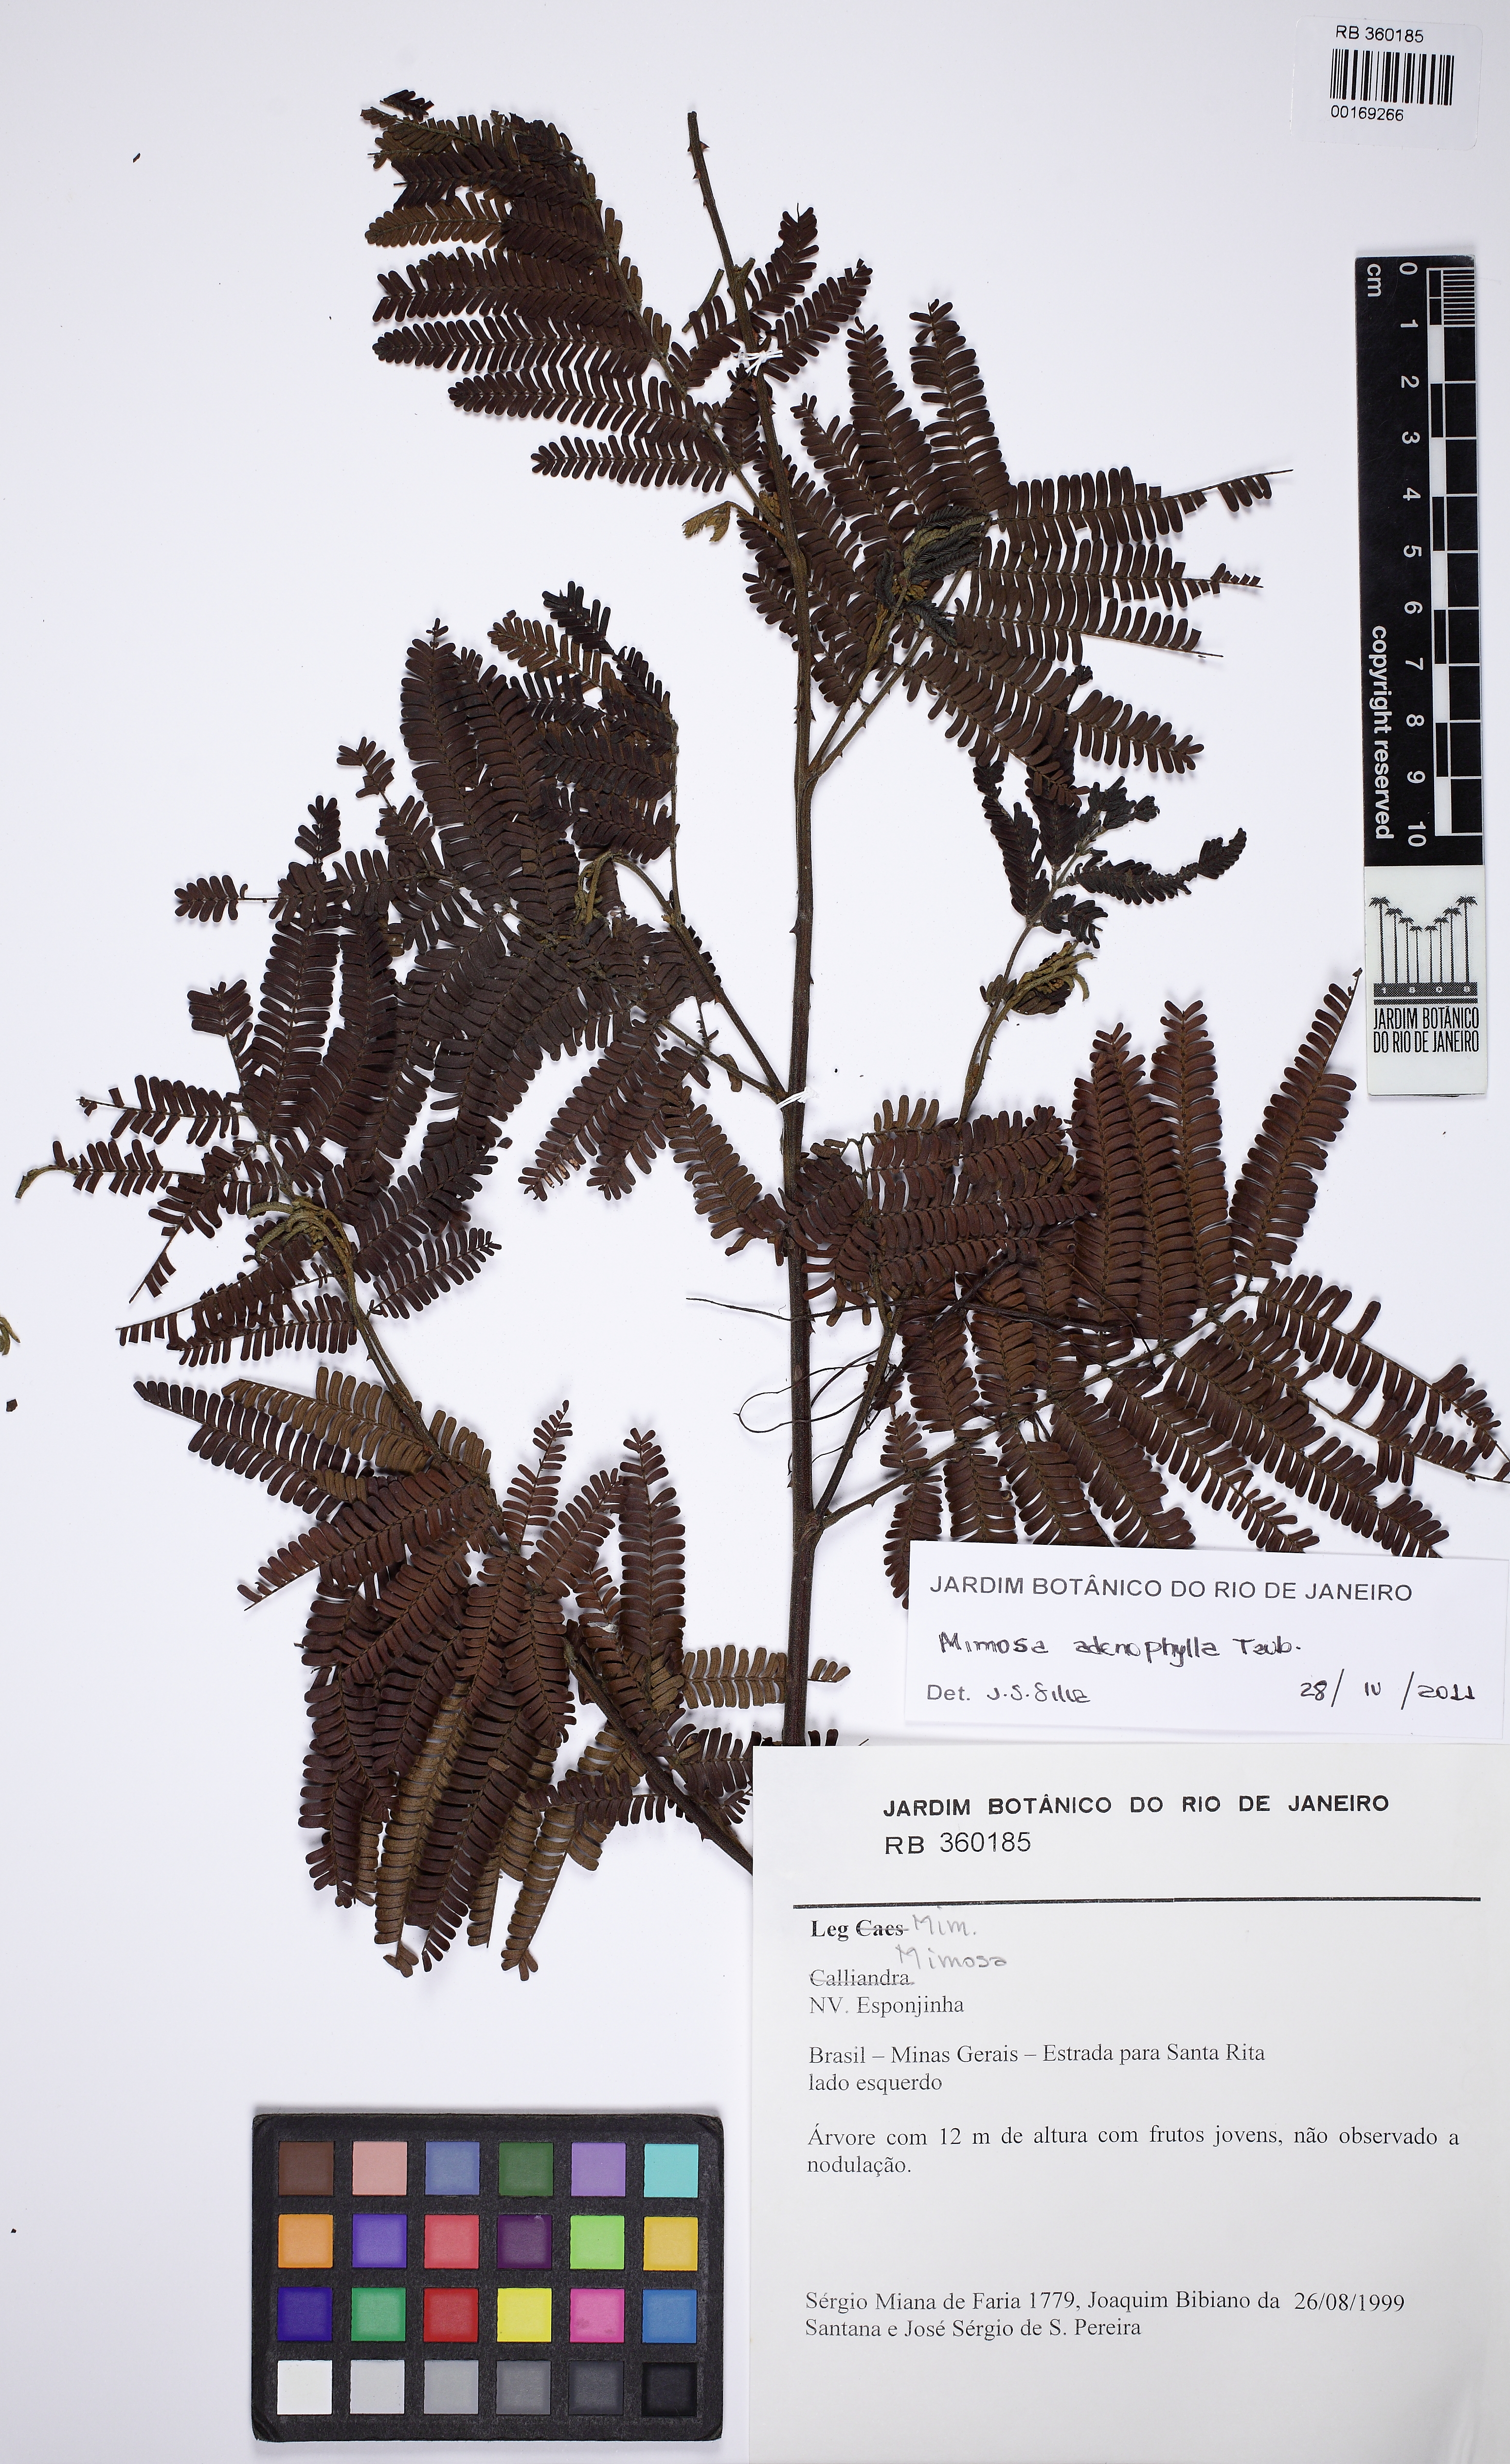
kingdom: Plantae
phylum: Tracheophyta
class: Magnoliopsida
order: Fabales
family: Fabaceae
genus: Mimosa
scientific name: Mimosa pteridifolia
